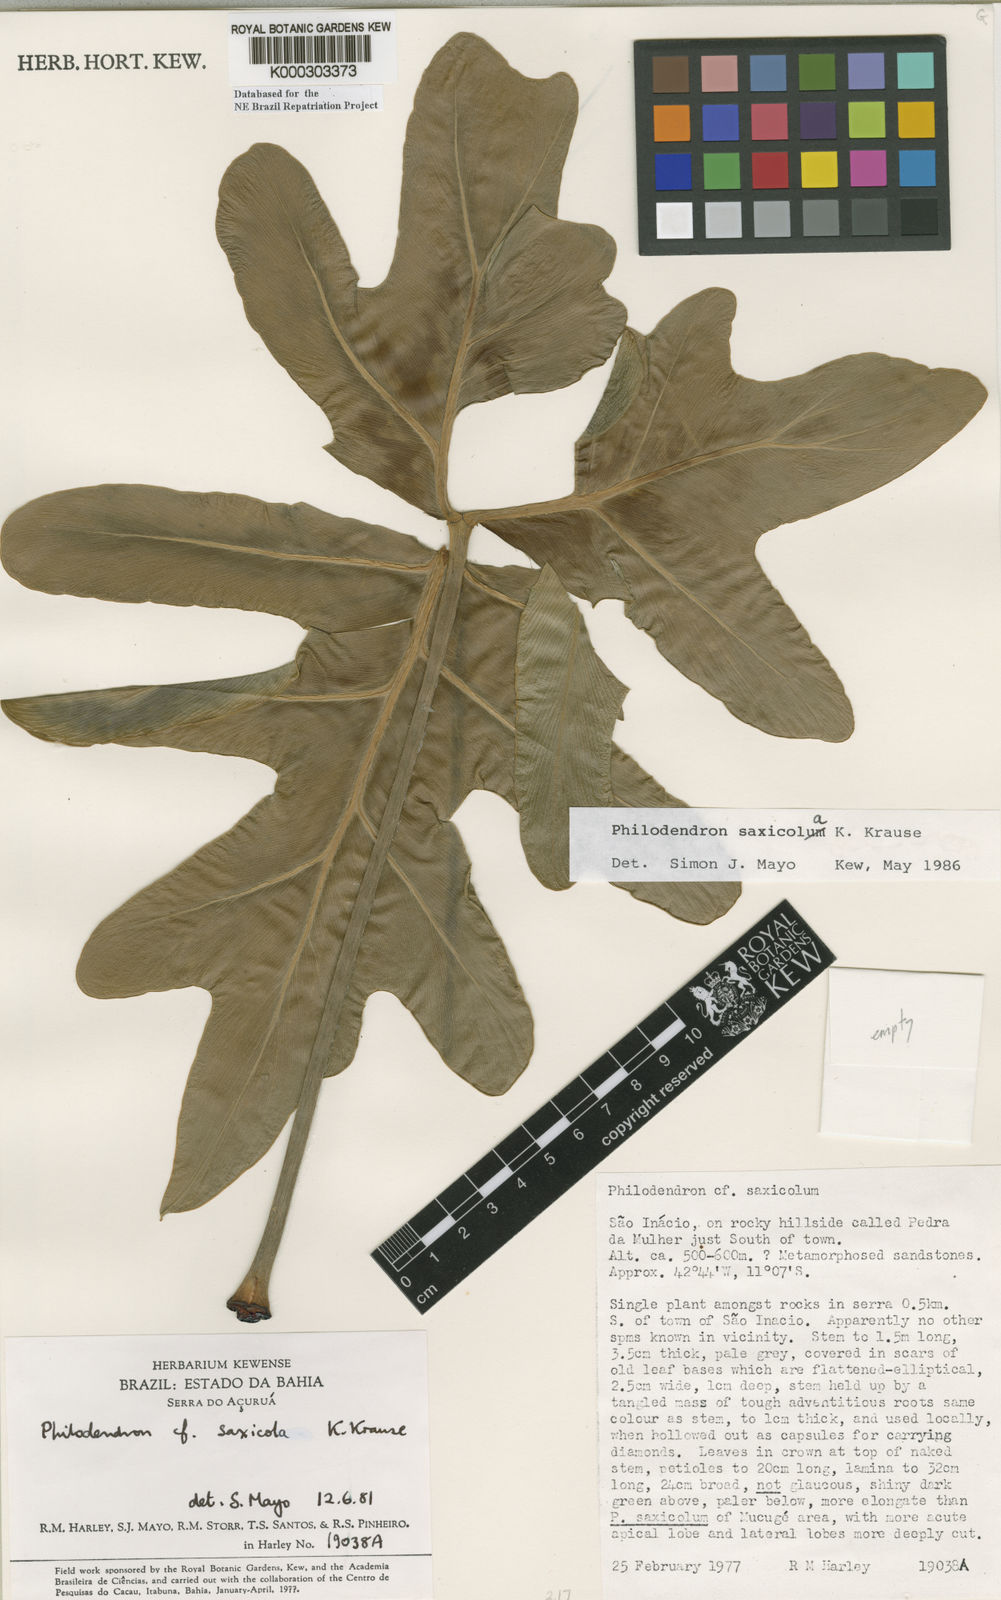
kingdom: Plantae
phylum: Tracheophyta
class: Liliopsida
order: Alismatales
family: Araceae
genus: Thaumatophyllum
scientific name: Thaumatophyllum saxicola
